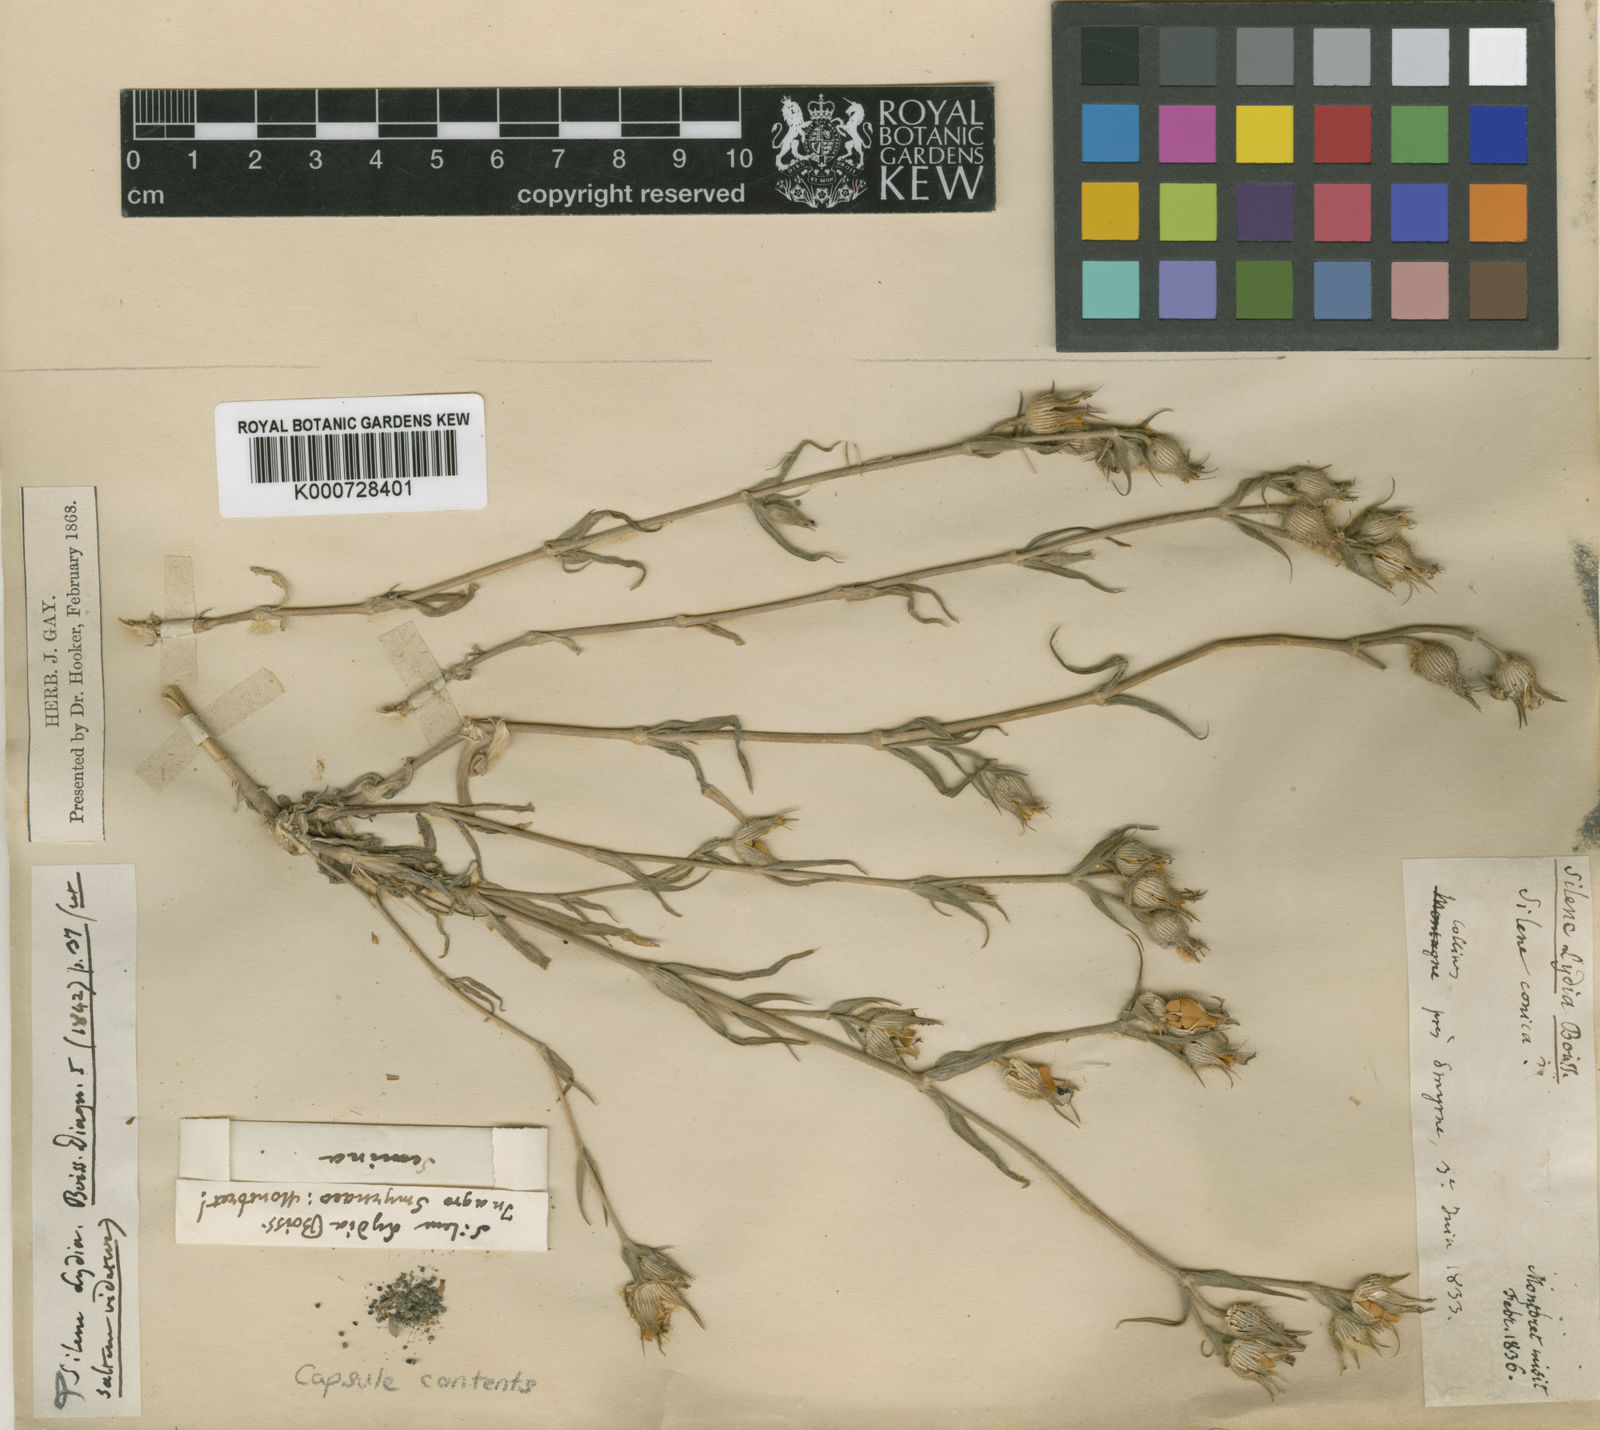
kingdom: Plantae
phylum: Tracheophyta
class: Magnoliopsida
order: Caryophyllales
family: Caryophyllaceae
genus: Silene
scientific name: Silene lydia
